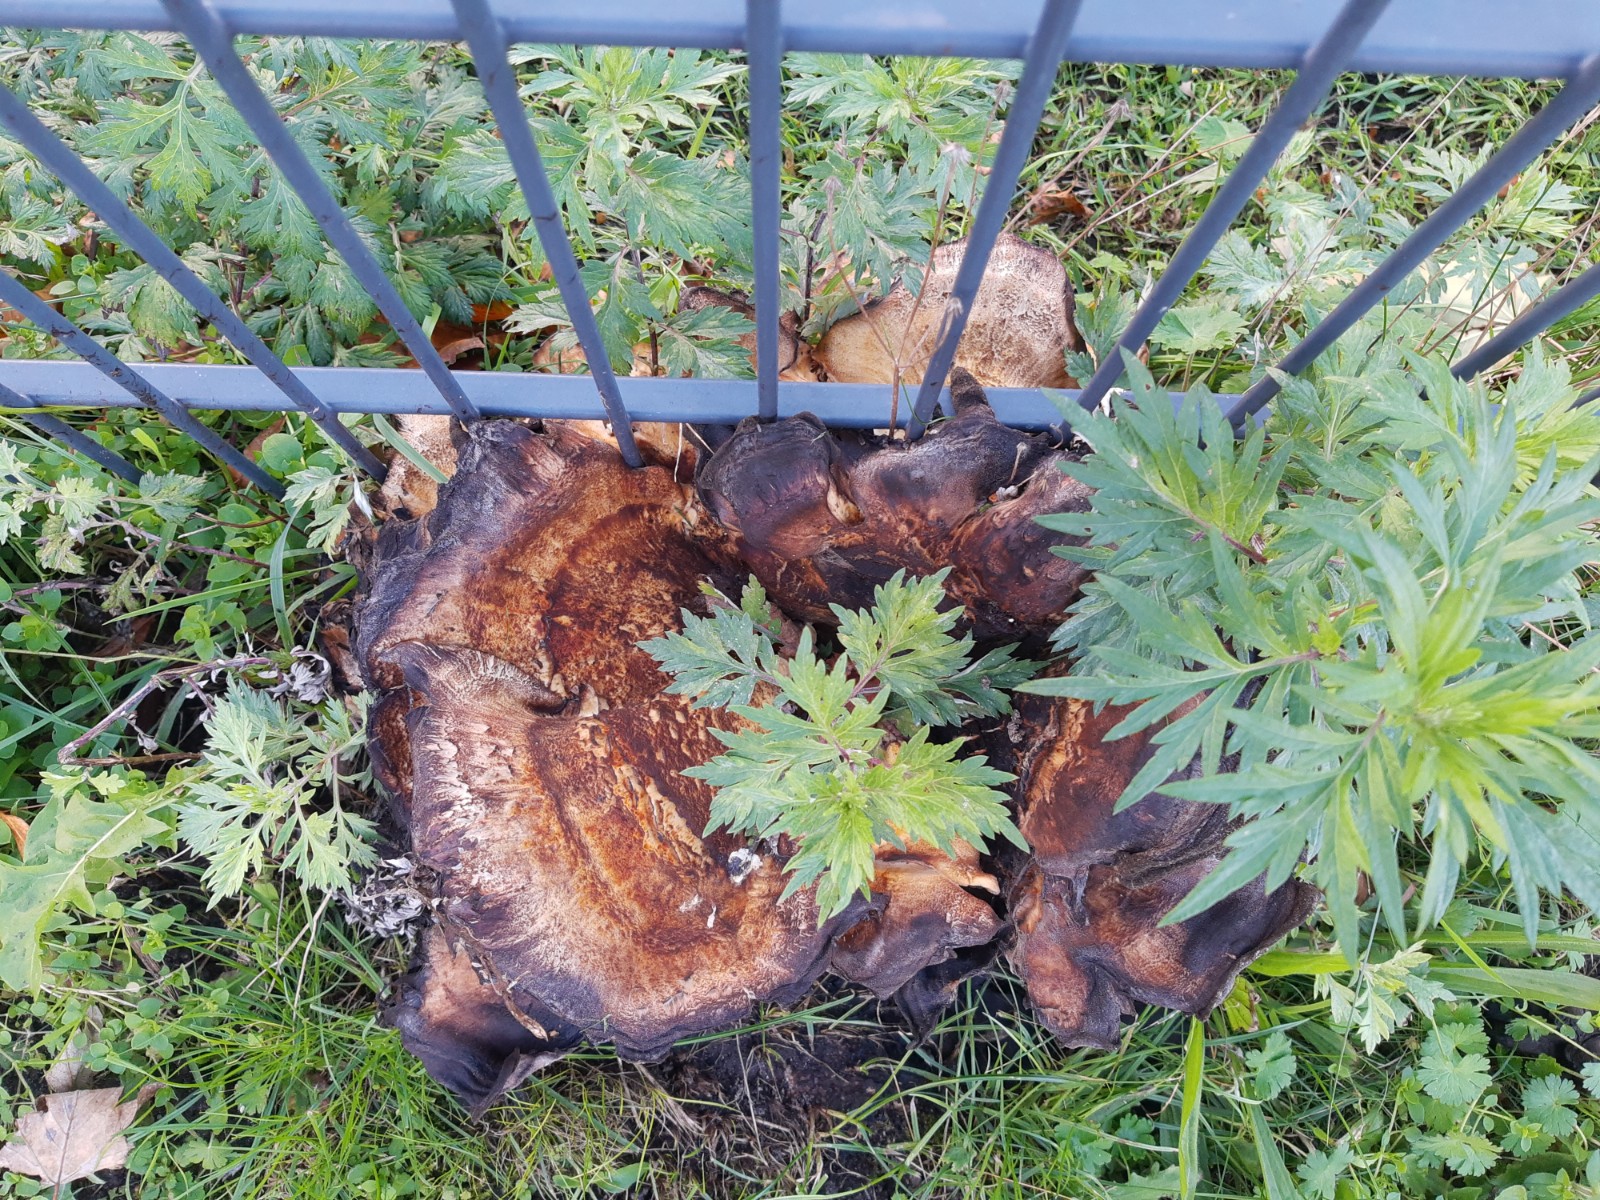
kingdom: Fungi
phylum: Basidiomycota
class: Agaricomycetes
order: Polyporales
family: Meripilaceae
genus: Meripilus
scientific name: Meripilus giganteus
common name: kæmpeporesvamp
